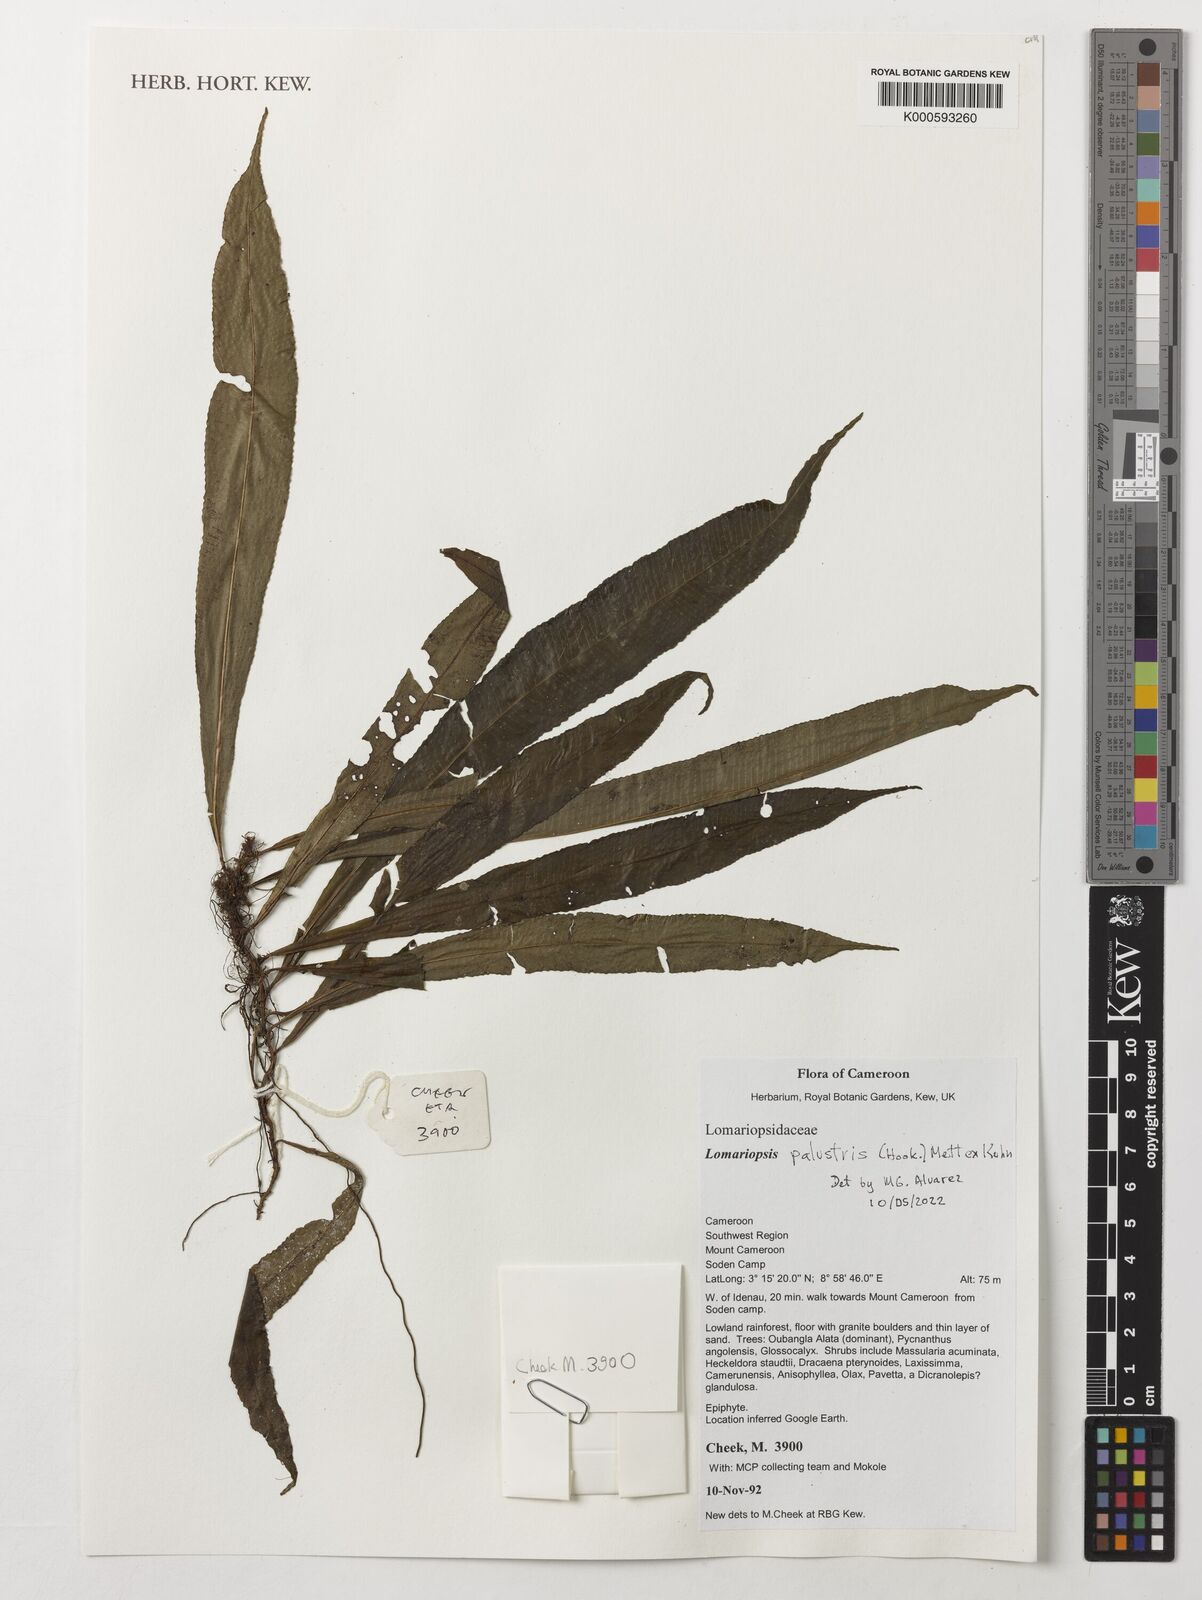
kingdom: Plantae
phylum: Tracheophyta
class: Polypodiopsida
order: Polypodiales
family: Lomariopsidaceae
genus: Lomariopsis
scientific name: Lomariopsis palustris
